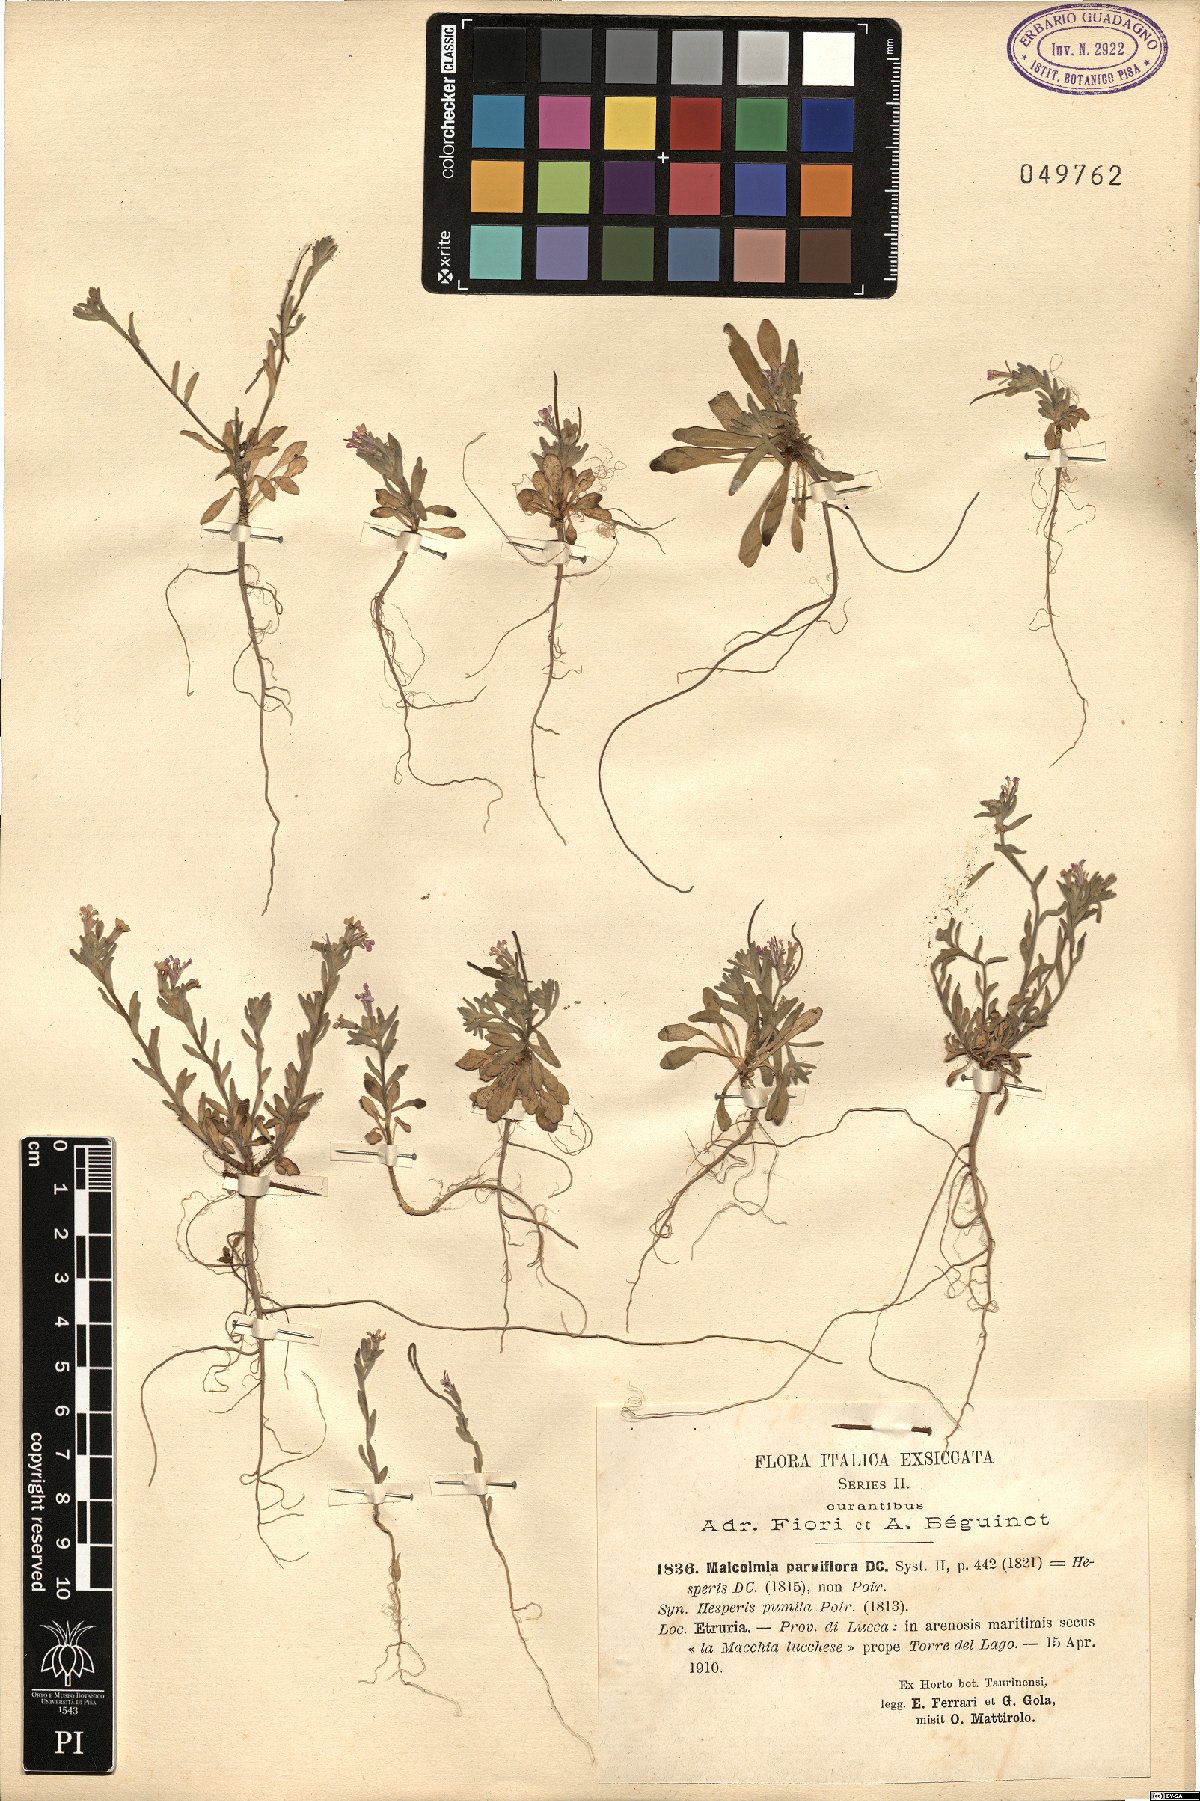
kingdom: Plantae
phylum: Tracheophyta
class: Magnoliopsida
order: Brassicales
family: Brassicaceae
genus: Marcuskochia
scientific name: Marcuskochia ramosissima
